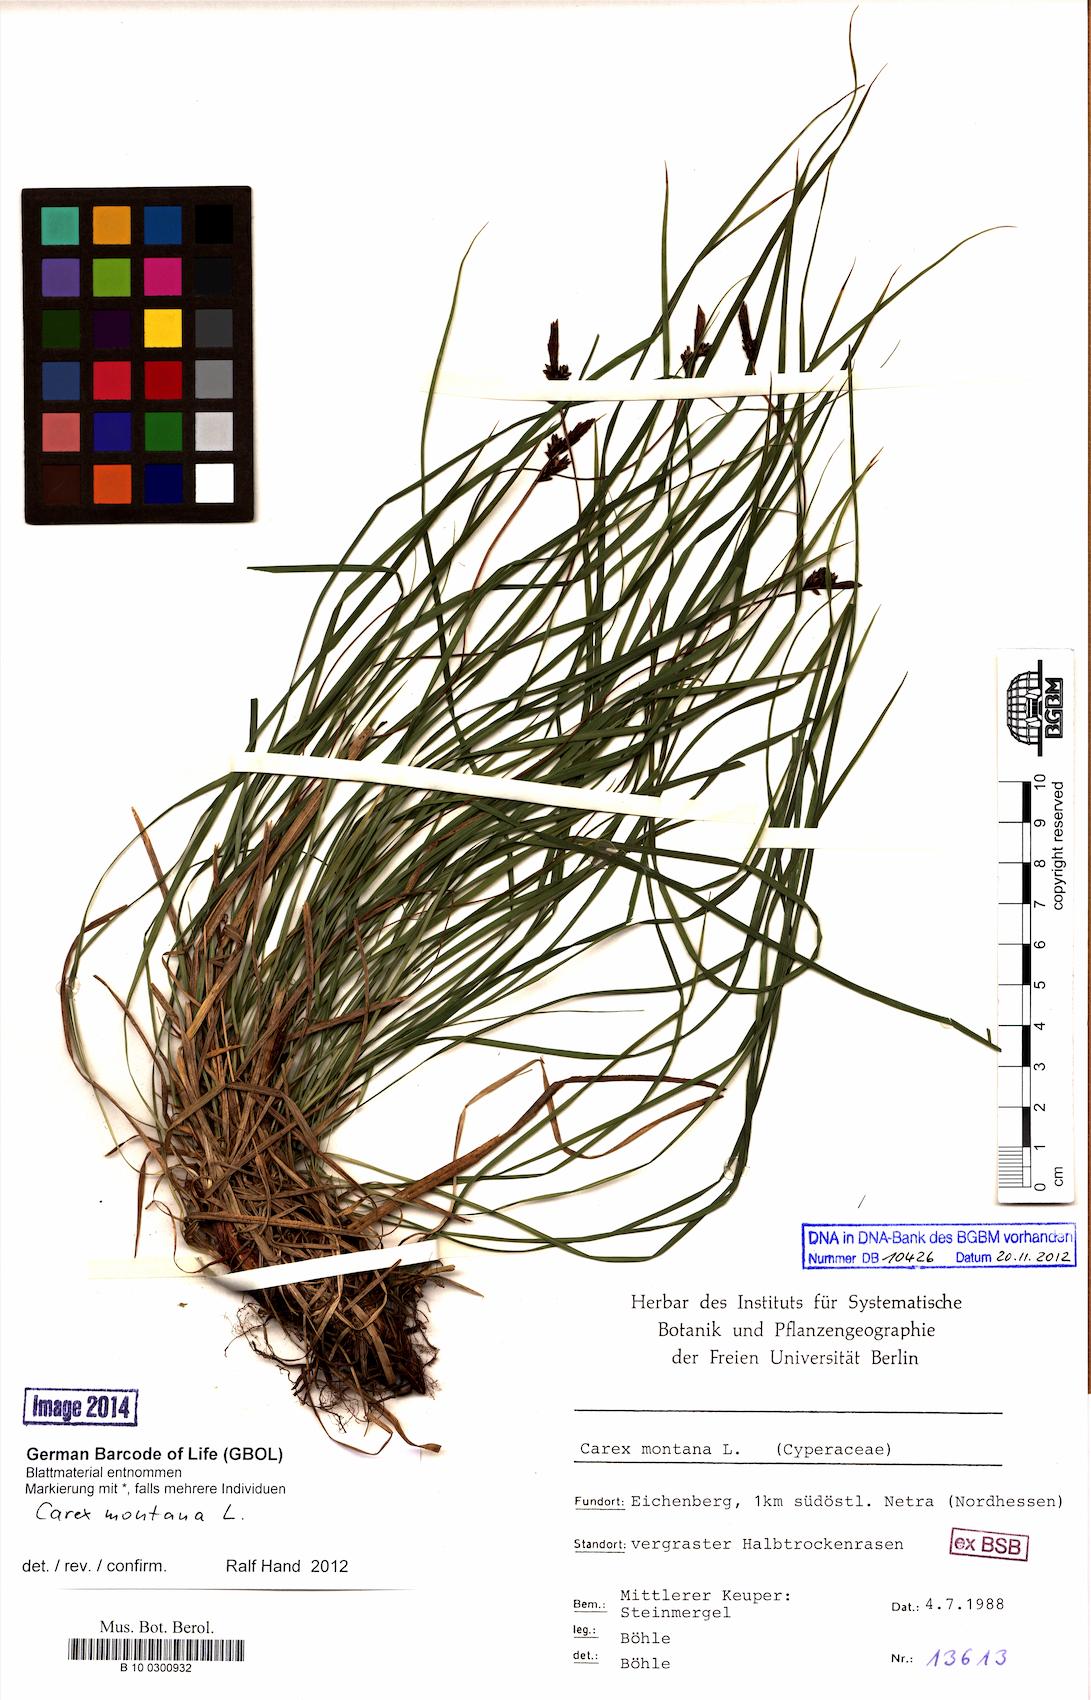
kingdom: Plantae
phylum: Tracheophyta
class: Liliopsida
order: Poales
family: Cyperaceae
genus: Carex
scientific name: Carex montana
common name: Soft-leaved sedge
